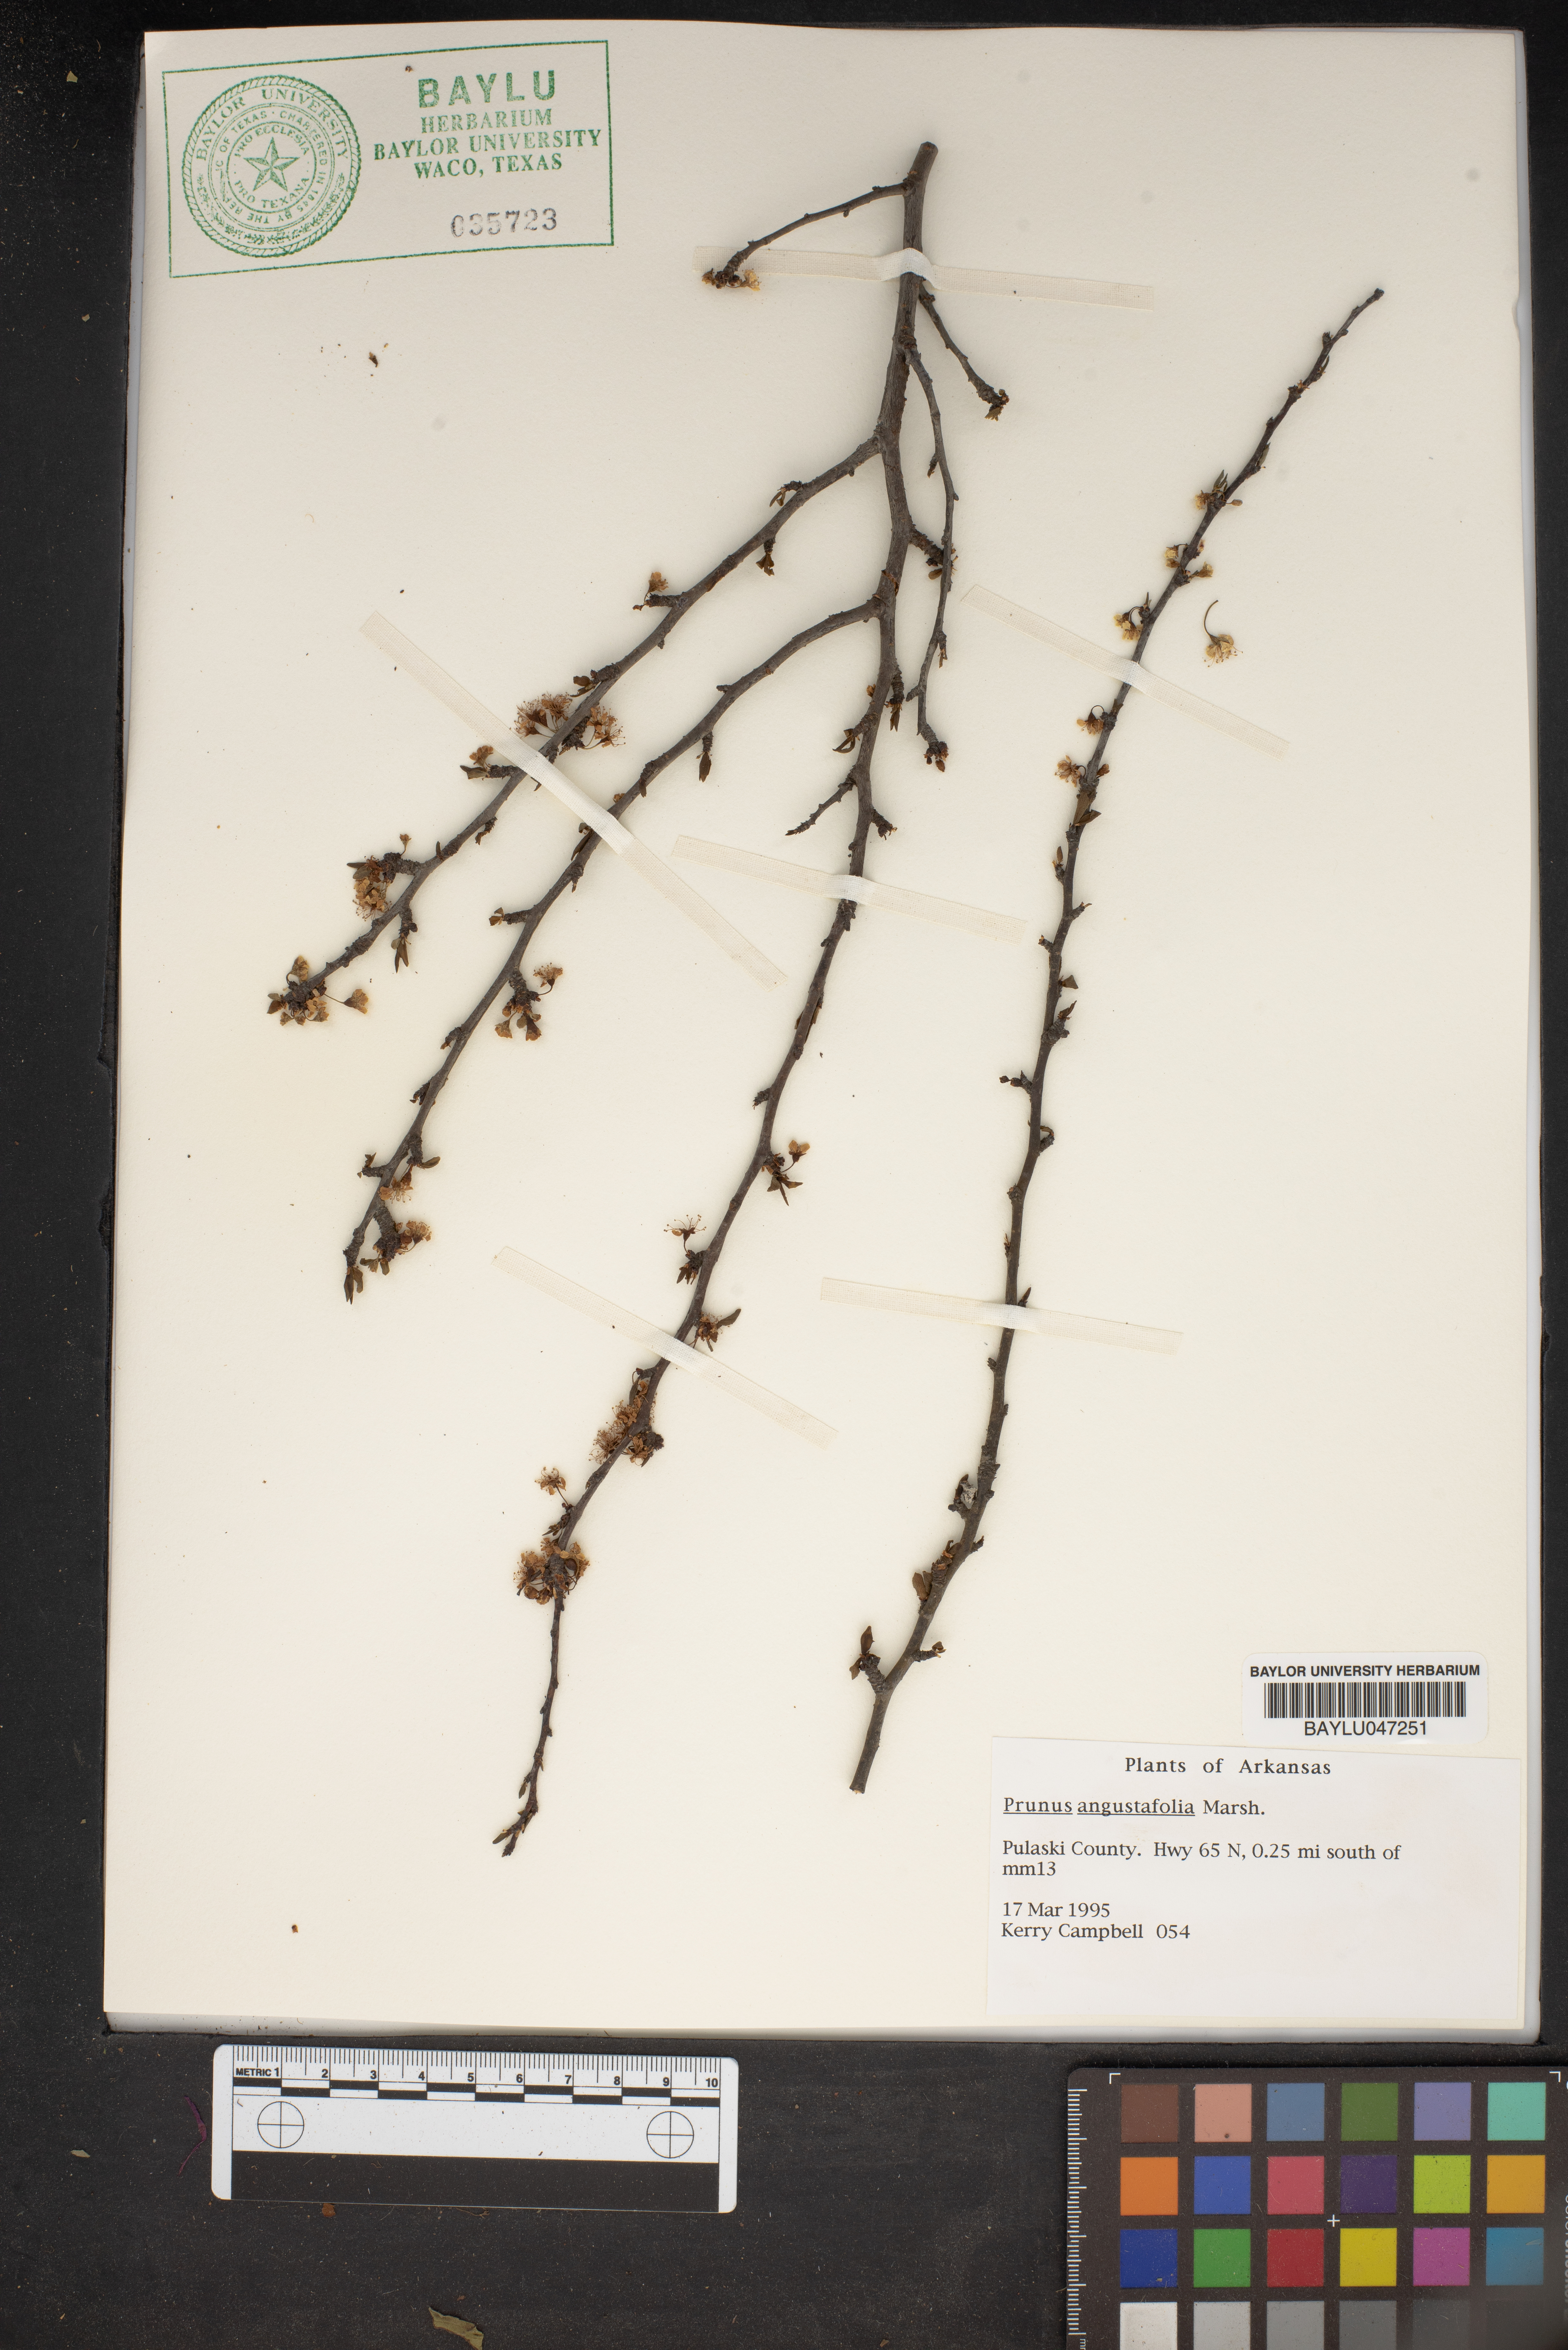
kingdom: Plantae
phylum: Tracheophyta
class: Magnoliopsida
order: Rosales
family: Rosaceae
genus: Prunus
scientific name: Prunus angustifolia
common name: Cherokee plum
